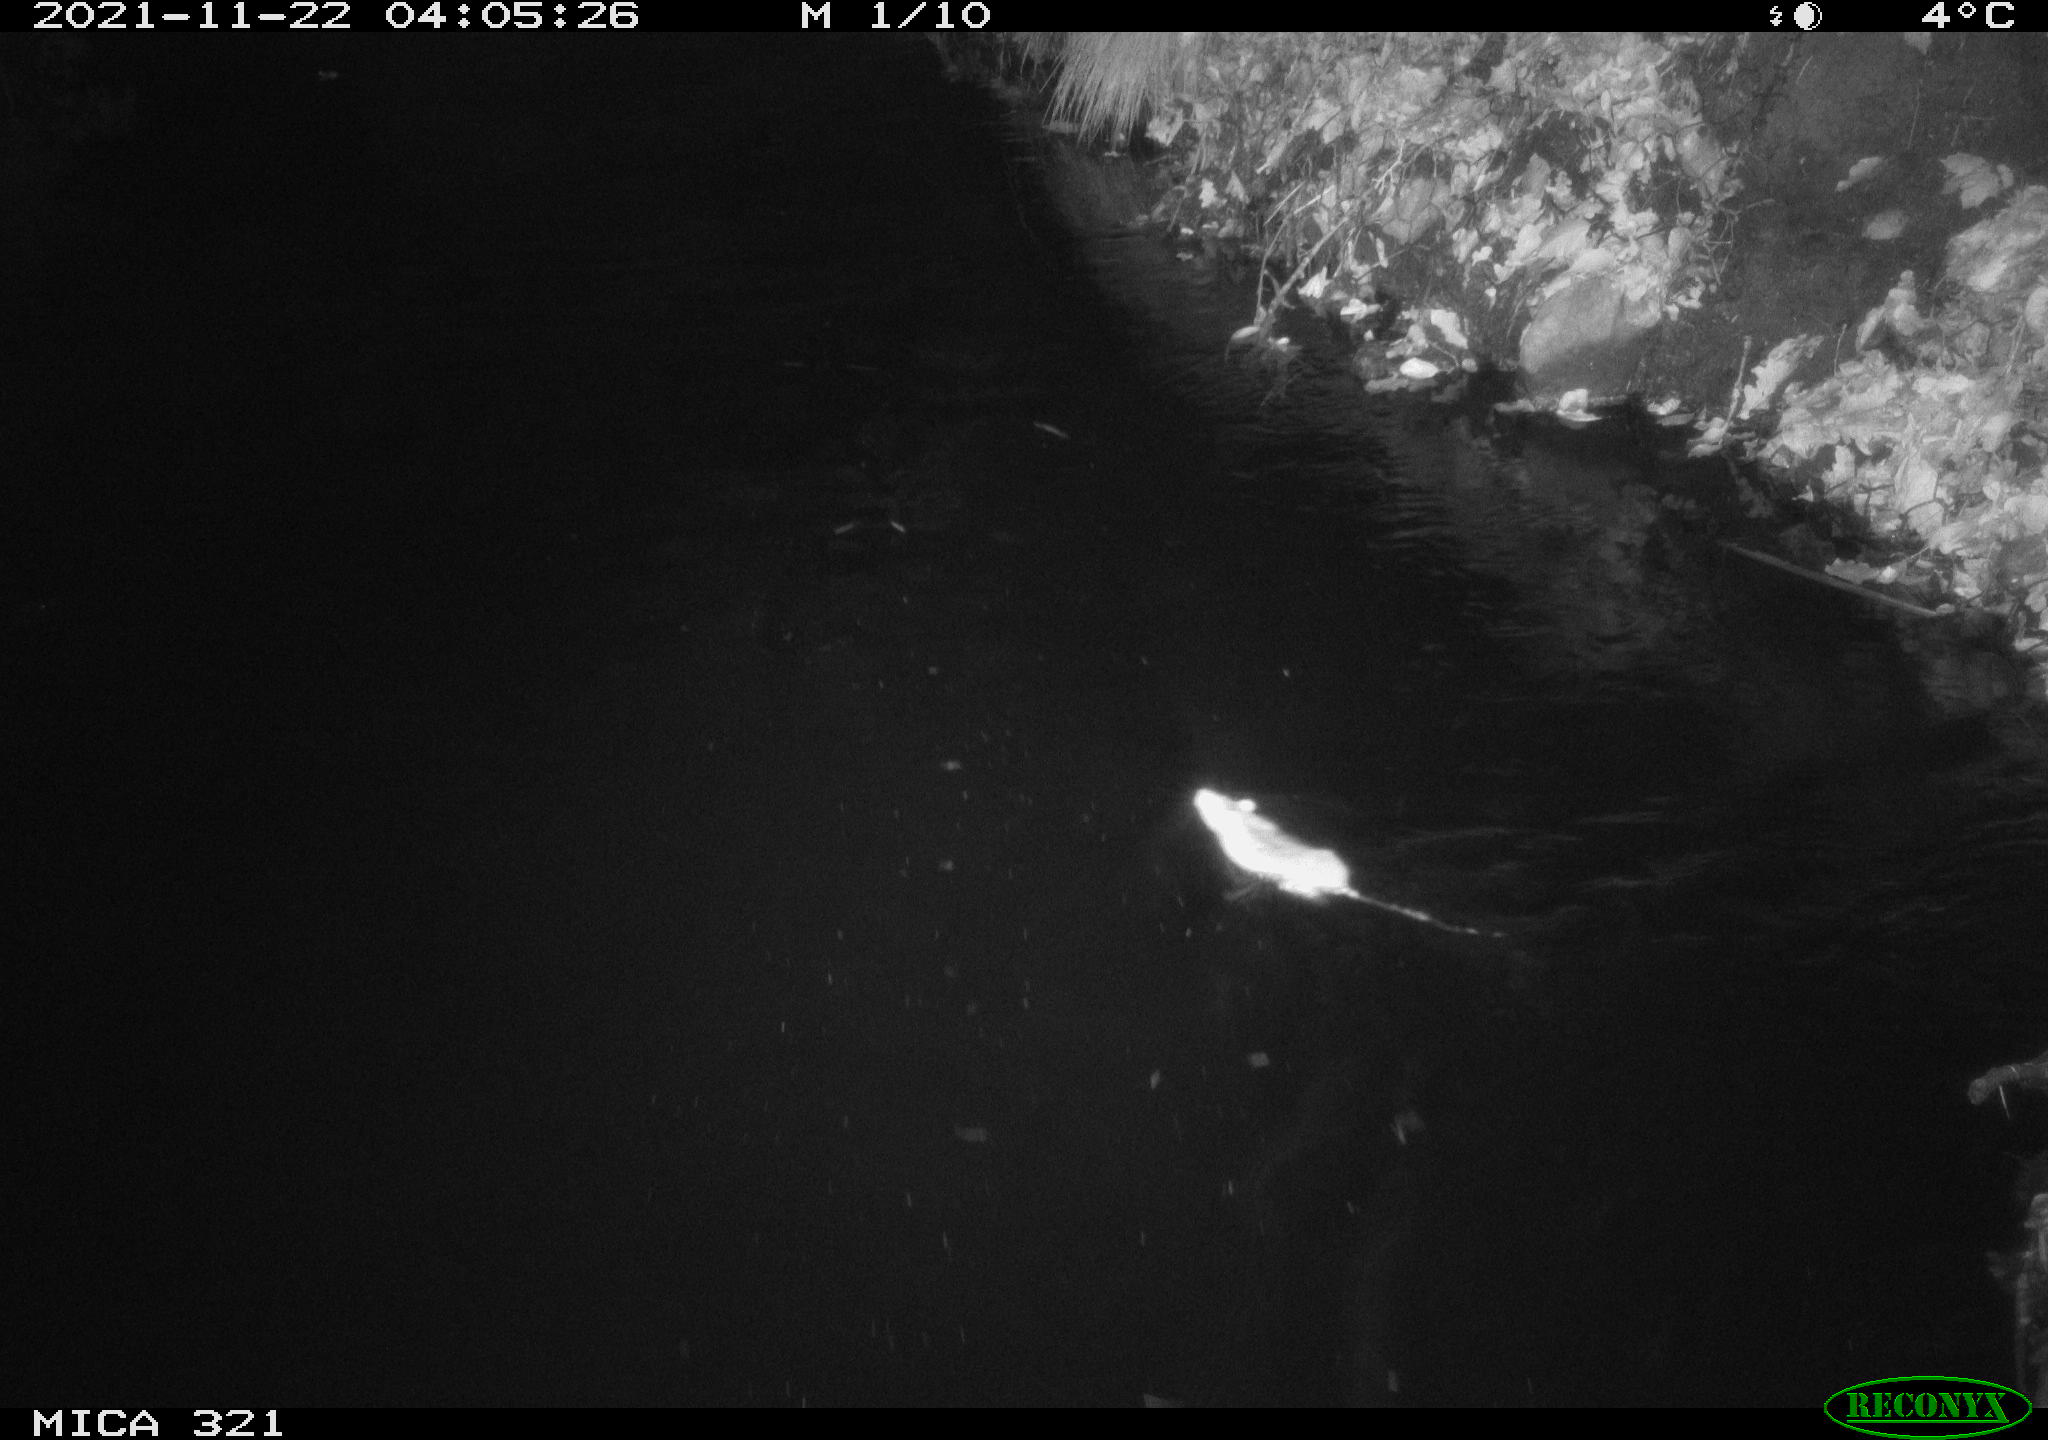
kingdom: Animalia
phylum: Chordata
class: Mammalia
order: Rodentia
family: Muridae
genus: Rattus
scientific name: Rattus norvegicus
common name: Brown rat
